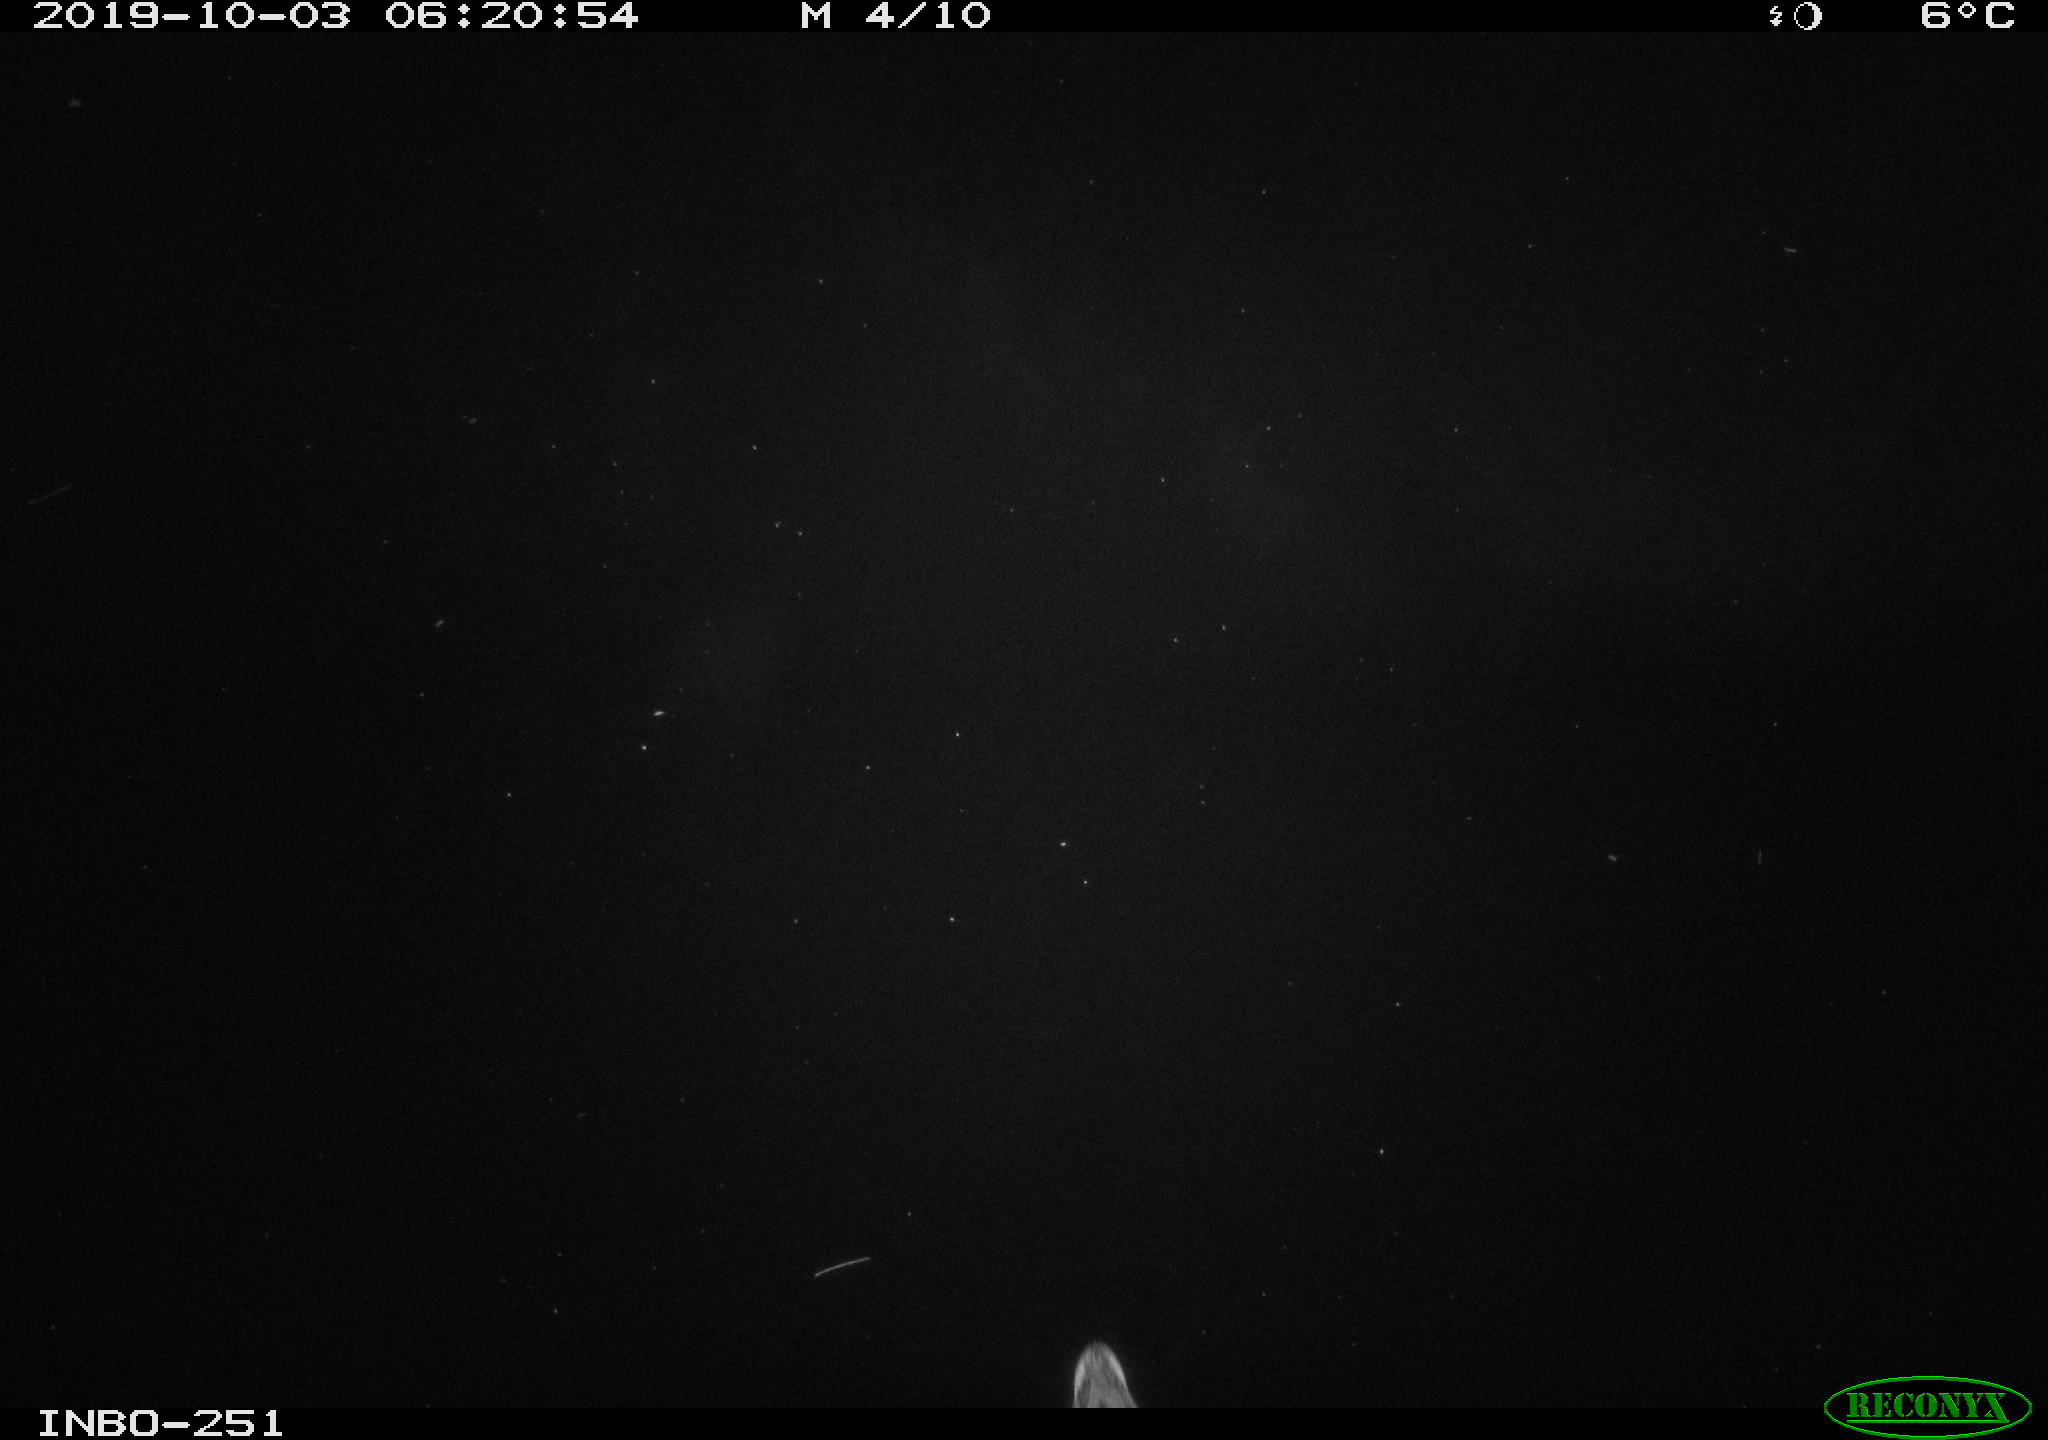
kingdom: Animalia
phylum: Chordata
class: Aves
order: Anseriformes
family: Anatidae
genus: Anas
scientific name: Anas platyrhynchos
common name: Mallard
